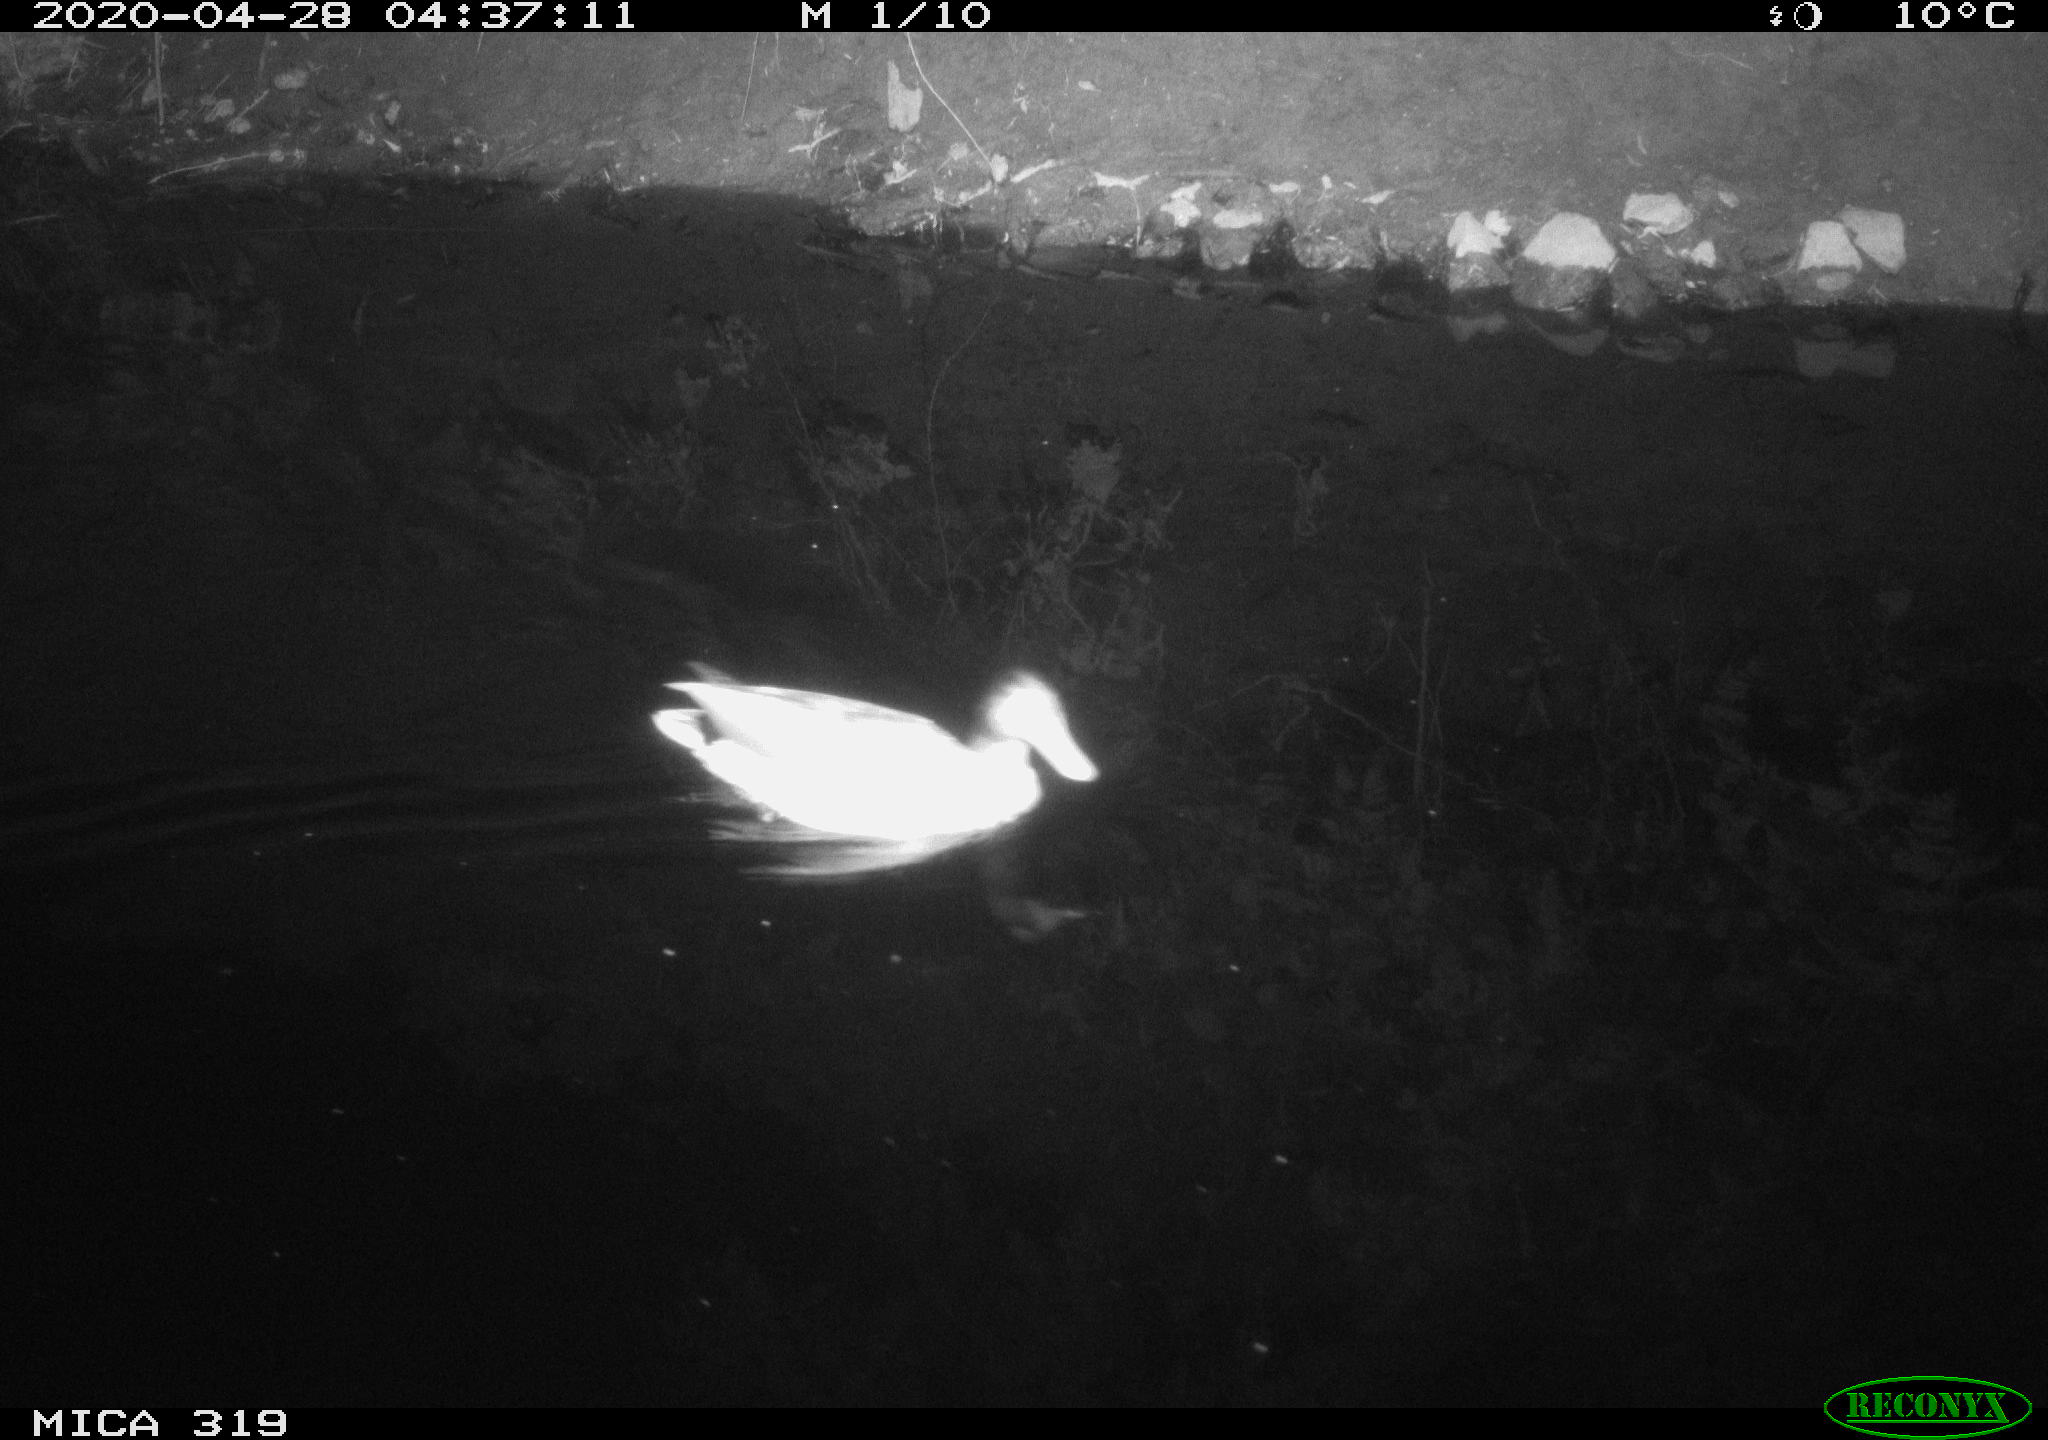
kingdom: Animalia
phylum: Chordata
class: Aves
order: Anseriformes
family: Anatidae
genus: Anas
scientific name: Anas platyrhynchos
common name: Mallard
